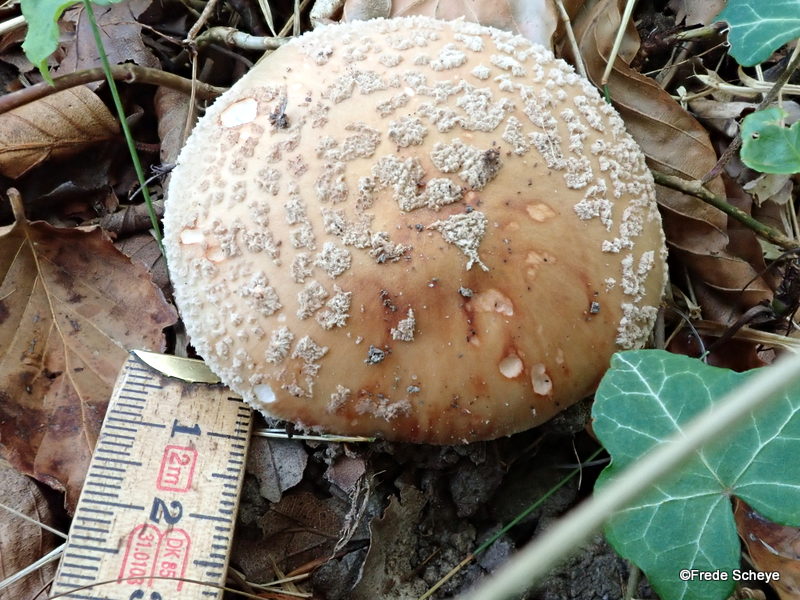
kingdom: Fungi
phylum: Basidiomycota
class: Agaricomycetes
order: Agaricales
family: Amanitaceae
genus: Amanita
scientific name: Amanita rubescens
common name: rødmende fluesvamp
